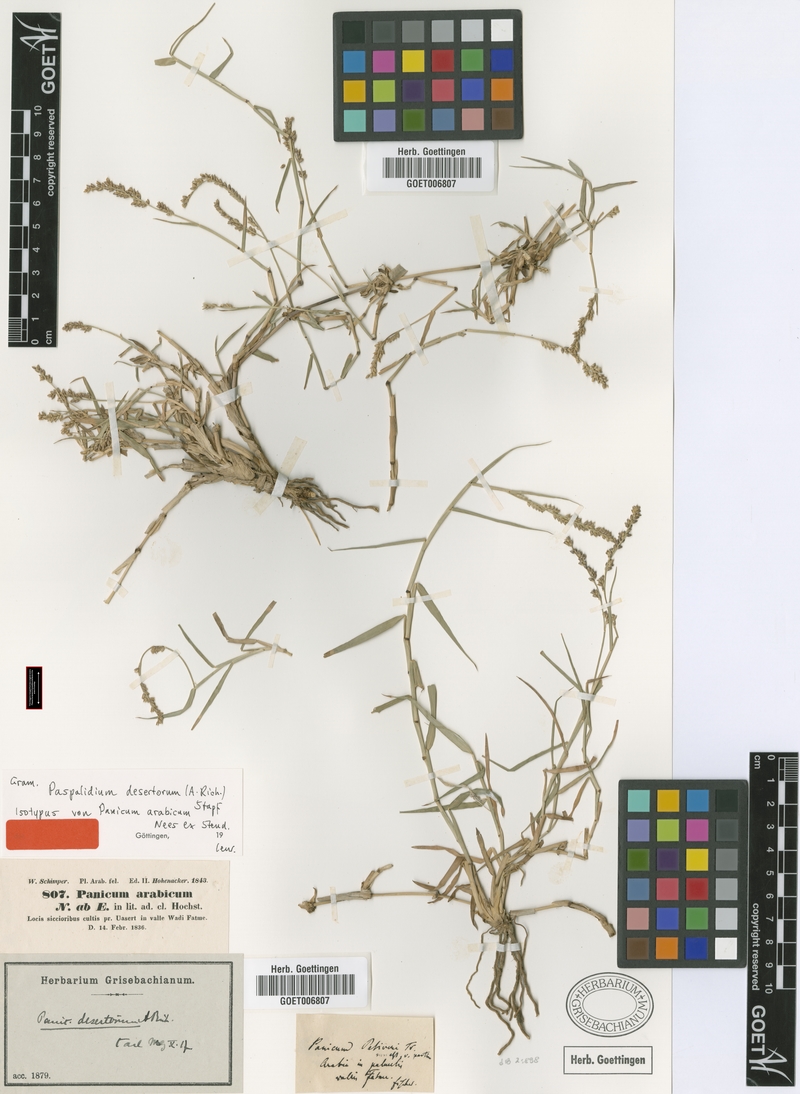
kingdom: Plantae
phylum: Tracheophyta
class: Liliopsida
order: Poales
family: Poaceae
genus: Setaria
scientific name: Setaria desertorum
